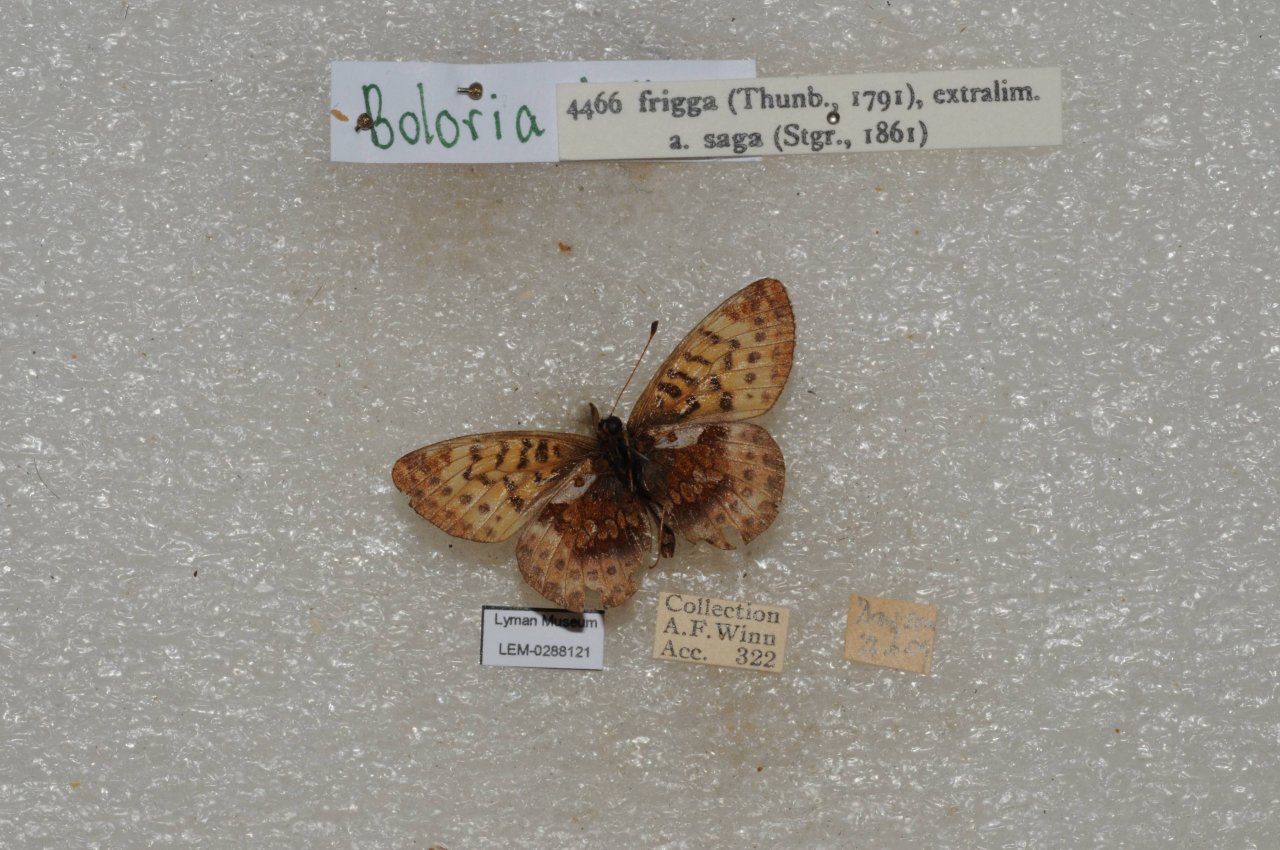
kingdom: Animalia
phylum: Arthropoda
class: Insecta
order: Lepidoptera
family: Nymphalidae
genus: Boloria
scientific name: Boloria frigga
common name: Frigga Fritillary
